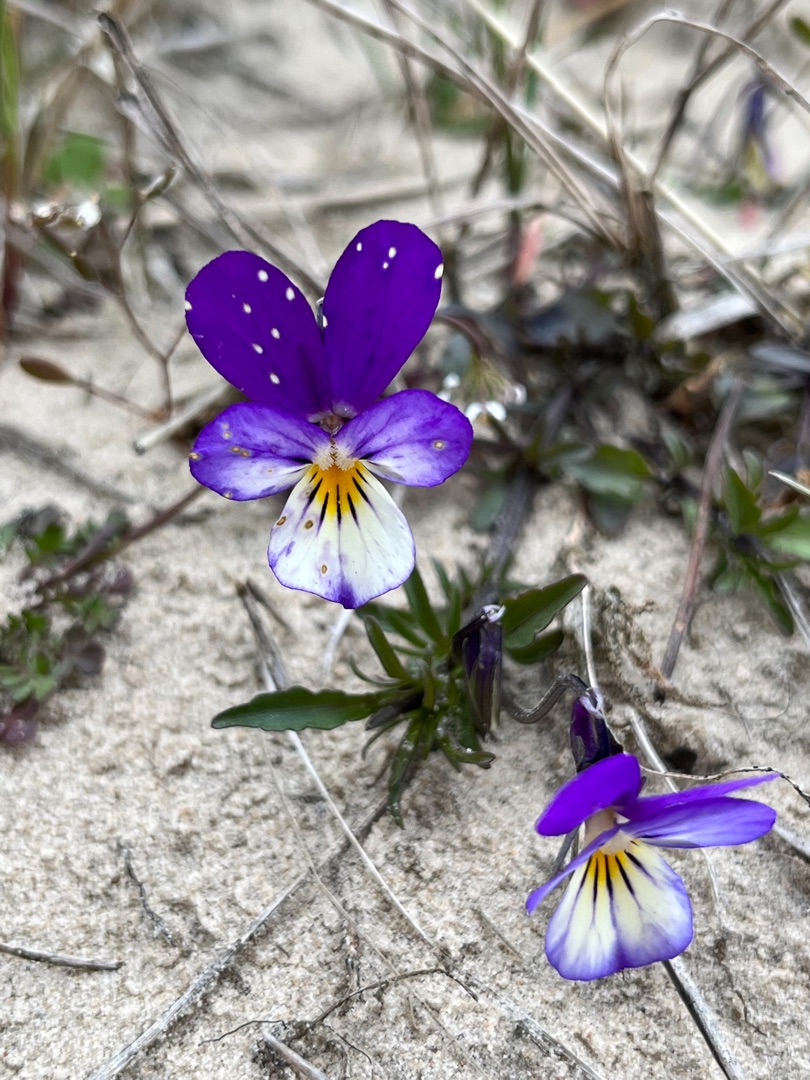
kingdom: Plantae
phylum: Tracheophyta
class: Magnoliopsida
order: Malpighiales
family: Violaceae
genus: Viola
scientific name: Viola tricolor
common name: Stedmoderblomst
